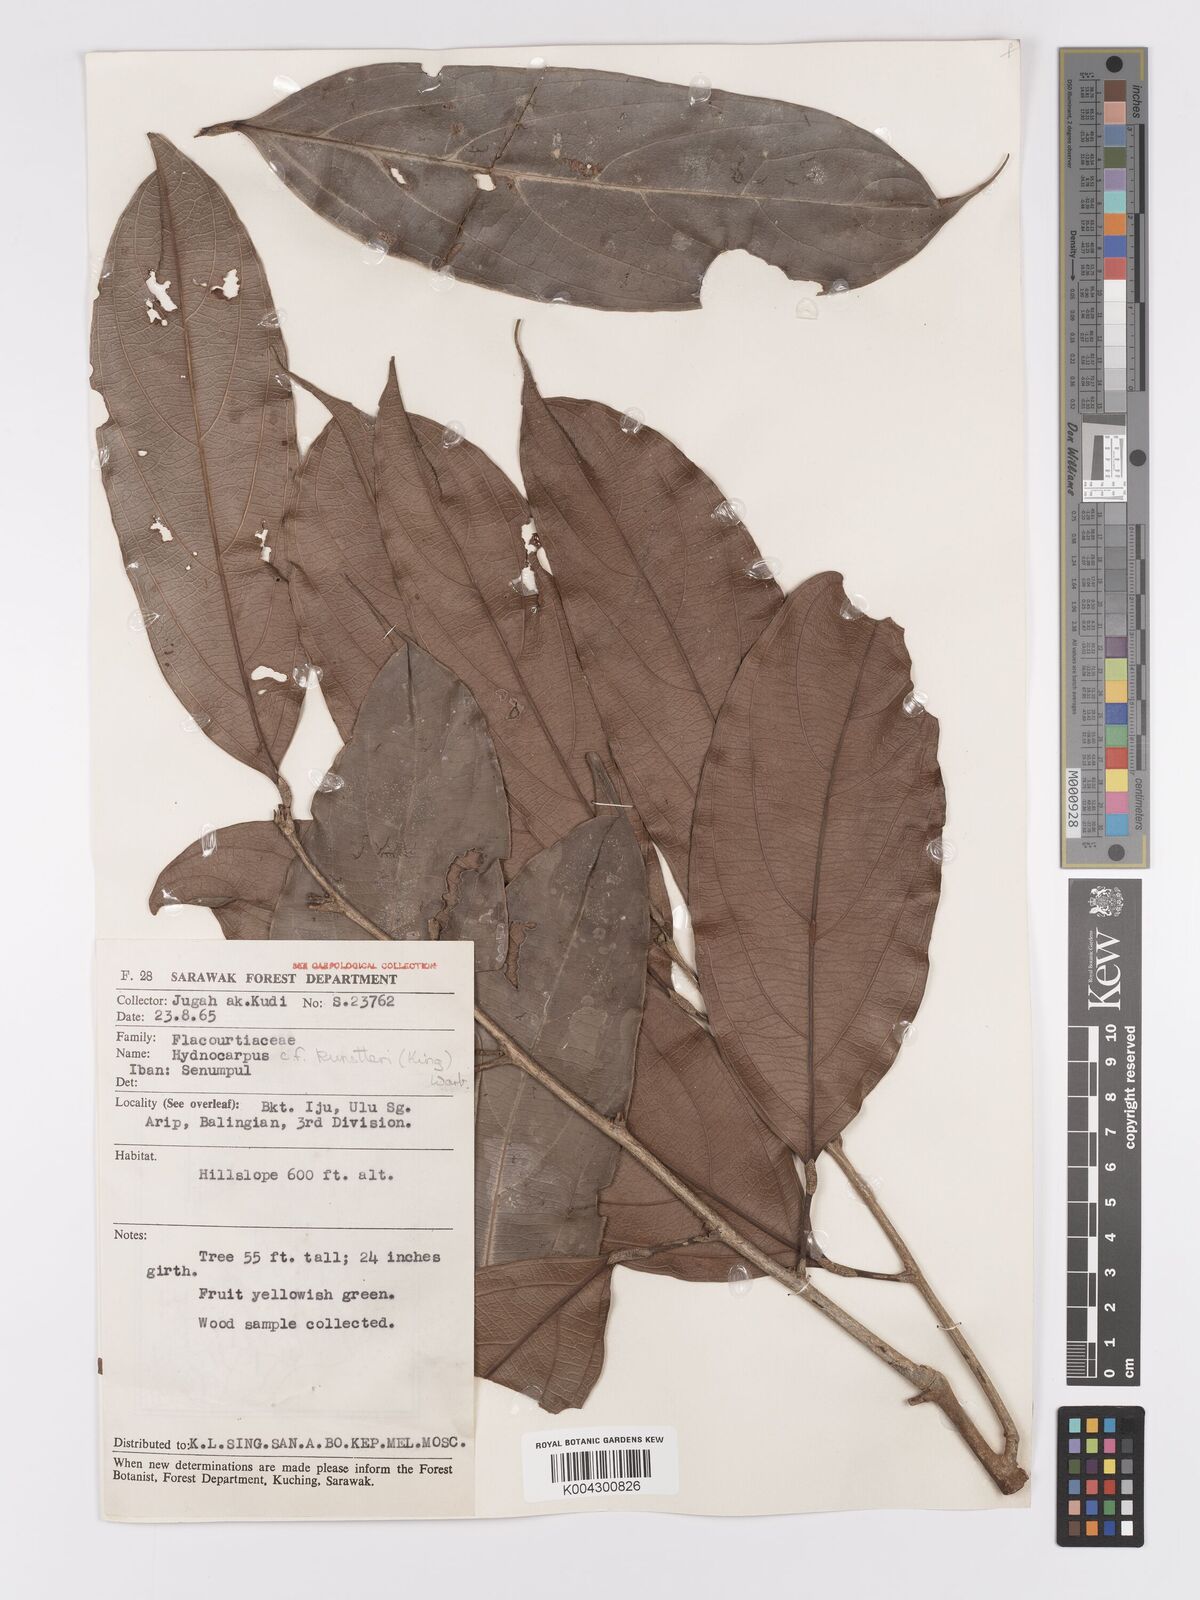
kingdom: Plantae
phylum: Tracheophyta
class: Magnoliopsida
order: Malpighiales
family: Achariaceae
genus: Hydnocarpus
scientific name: Hydnocarpus kunstleri
